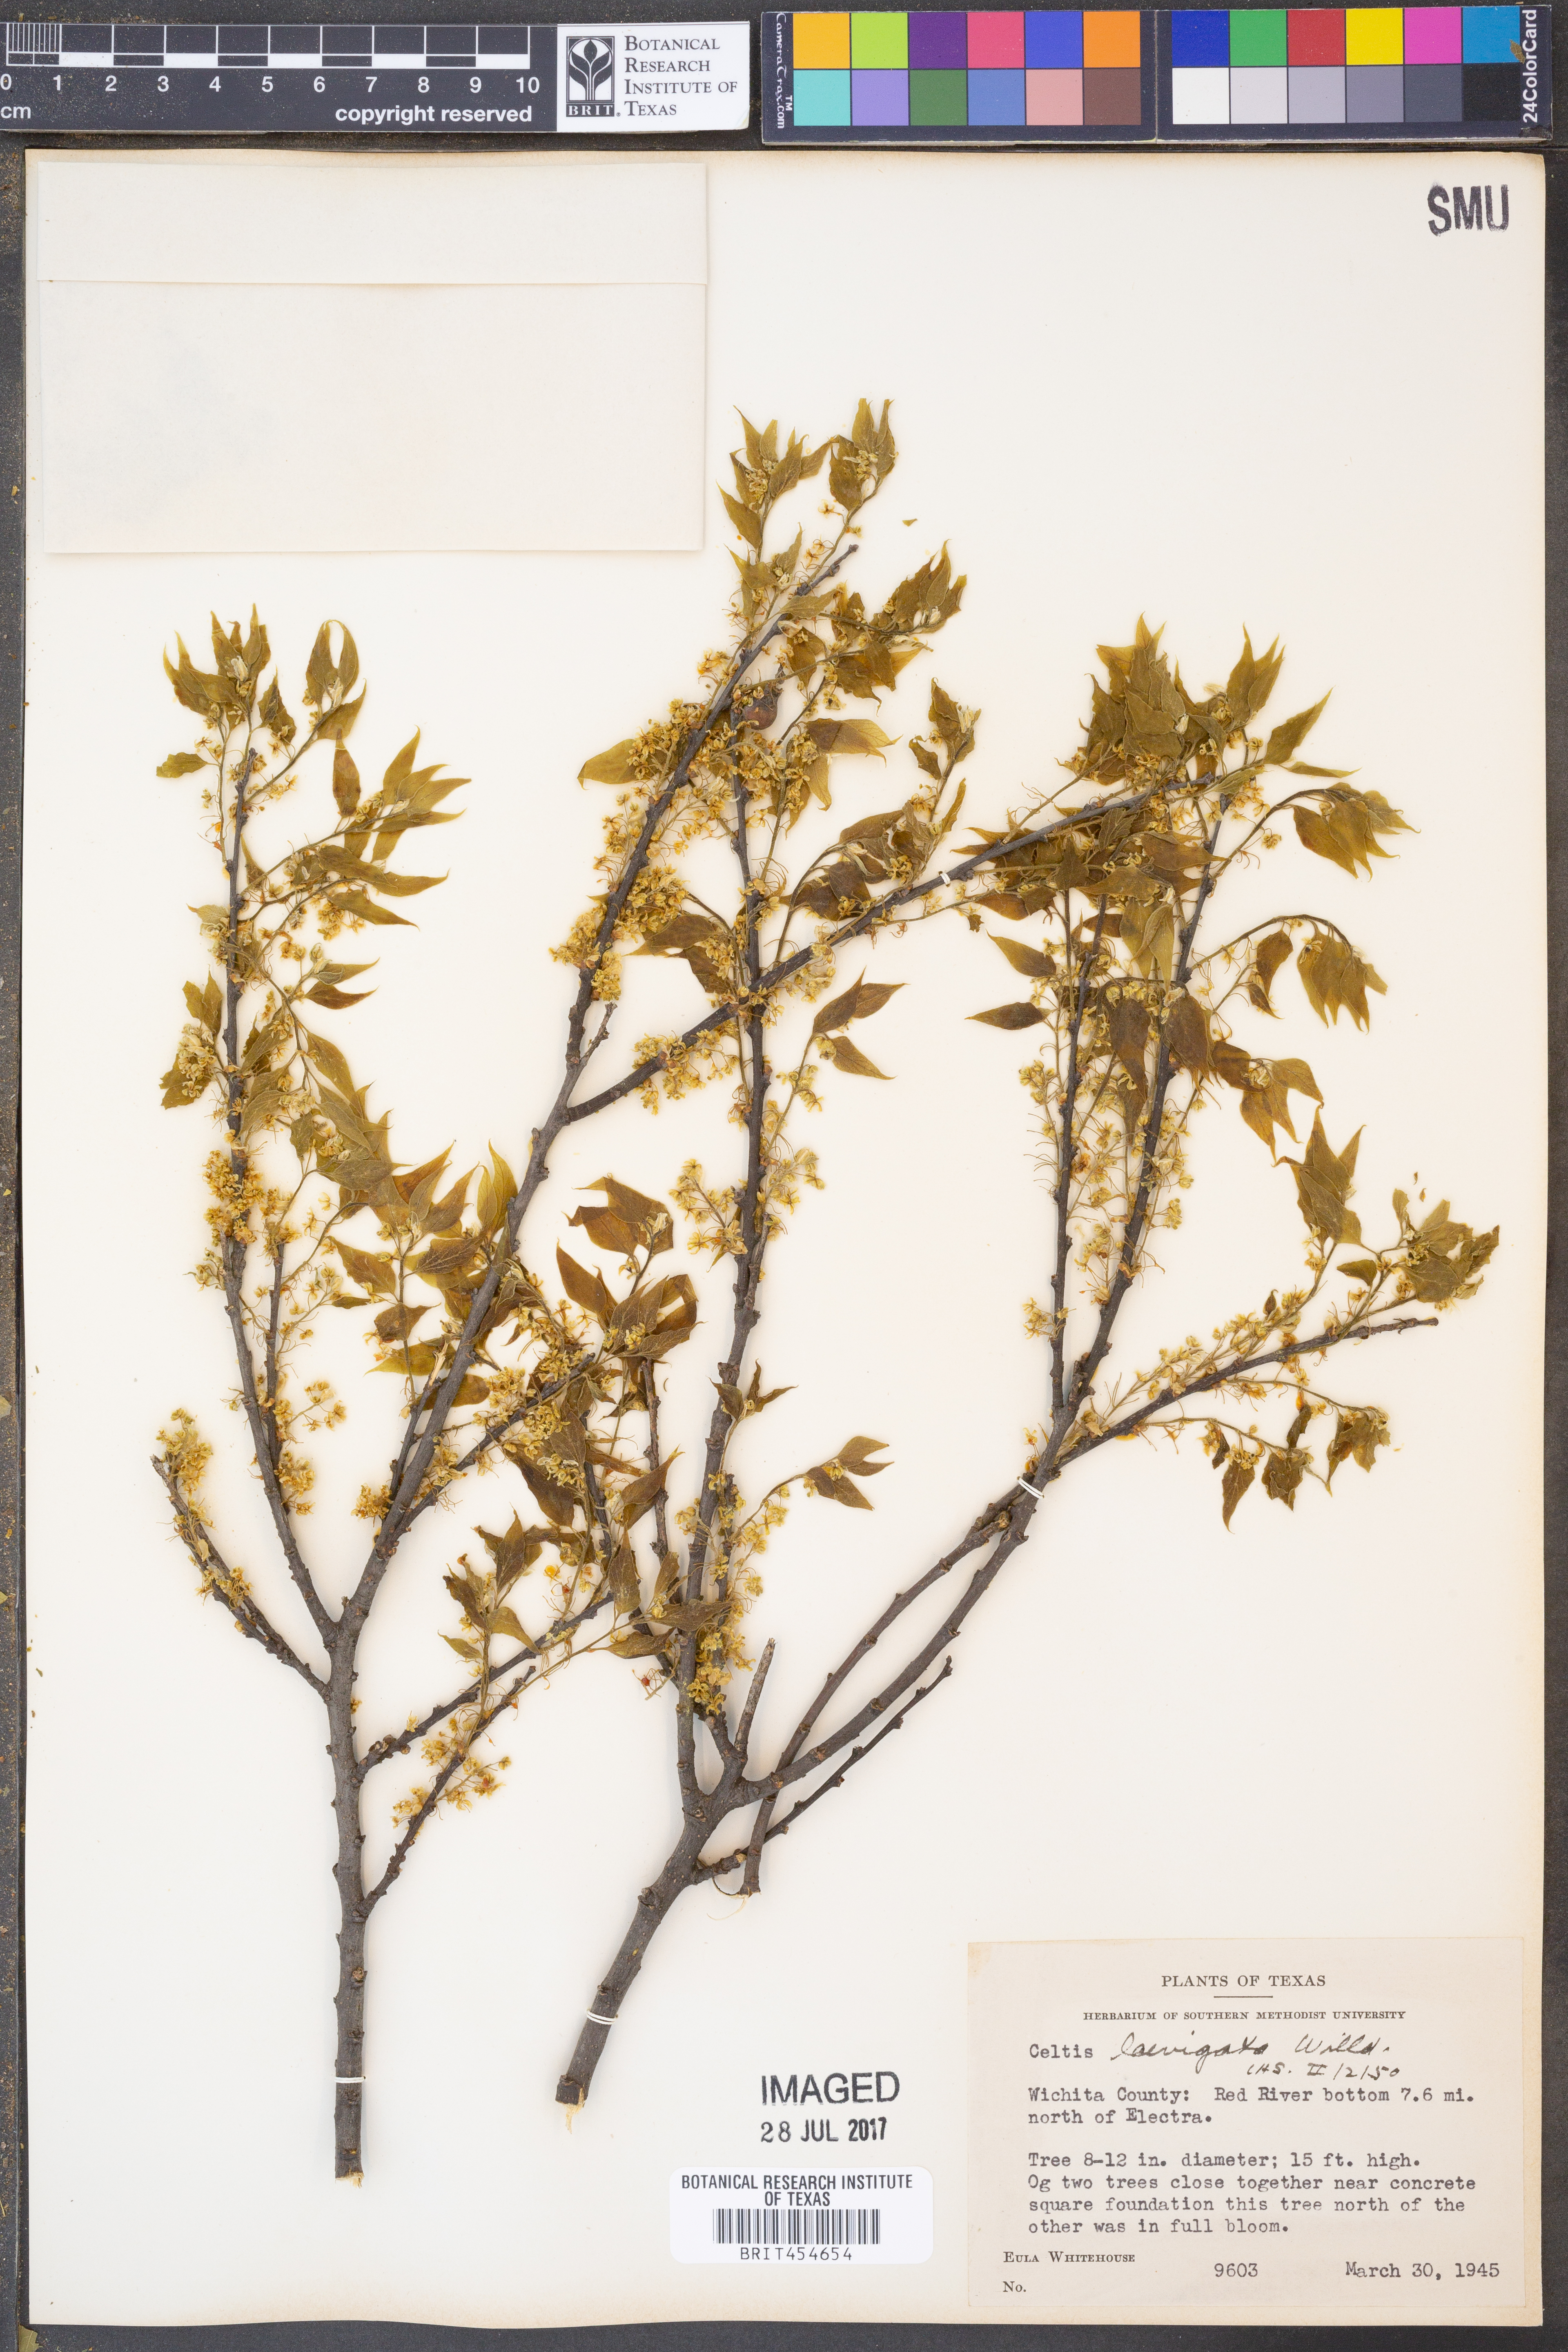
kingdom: Plantae
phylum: Tracheophyta
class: Magnoliopsida
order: Rosales
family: Cannabaceae
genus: Celtis
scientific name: Celtis laevigata
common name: Sugarberry
